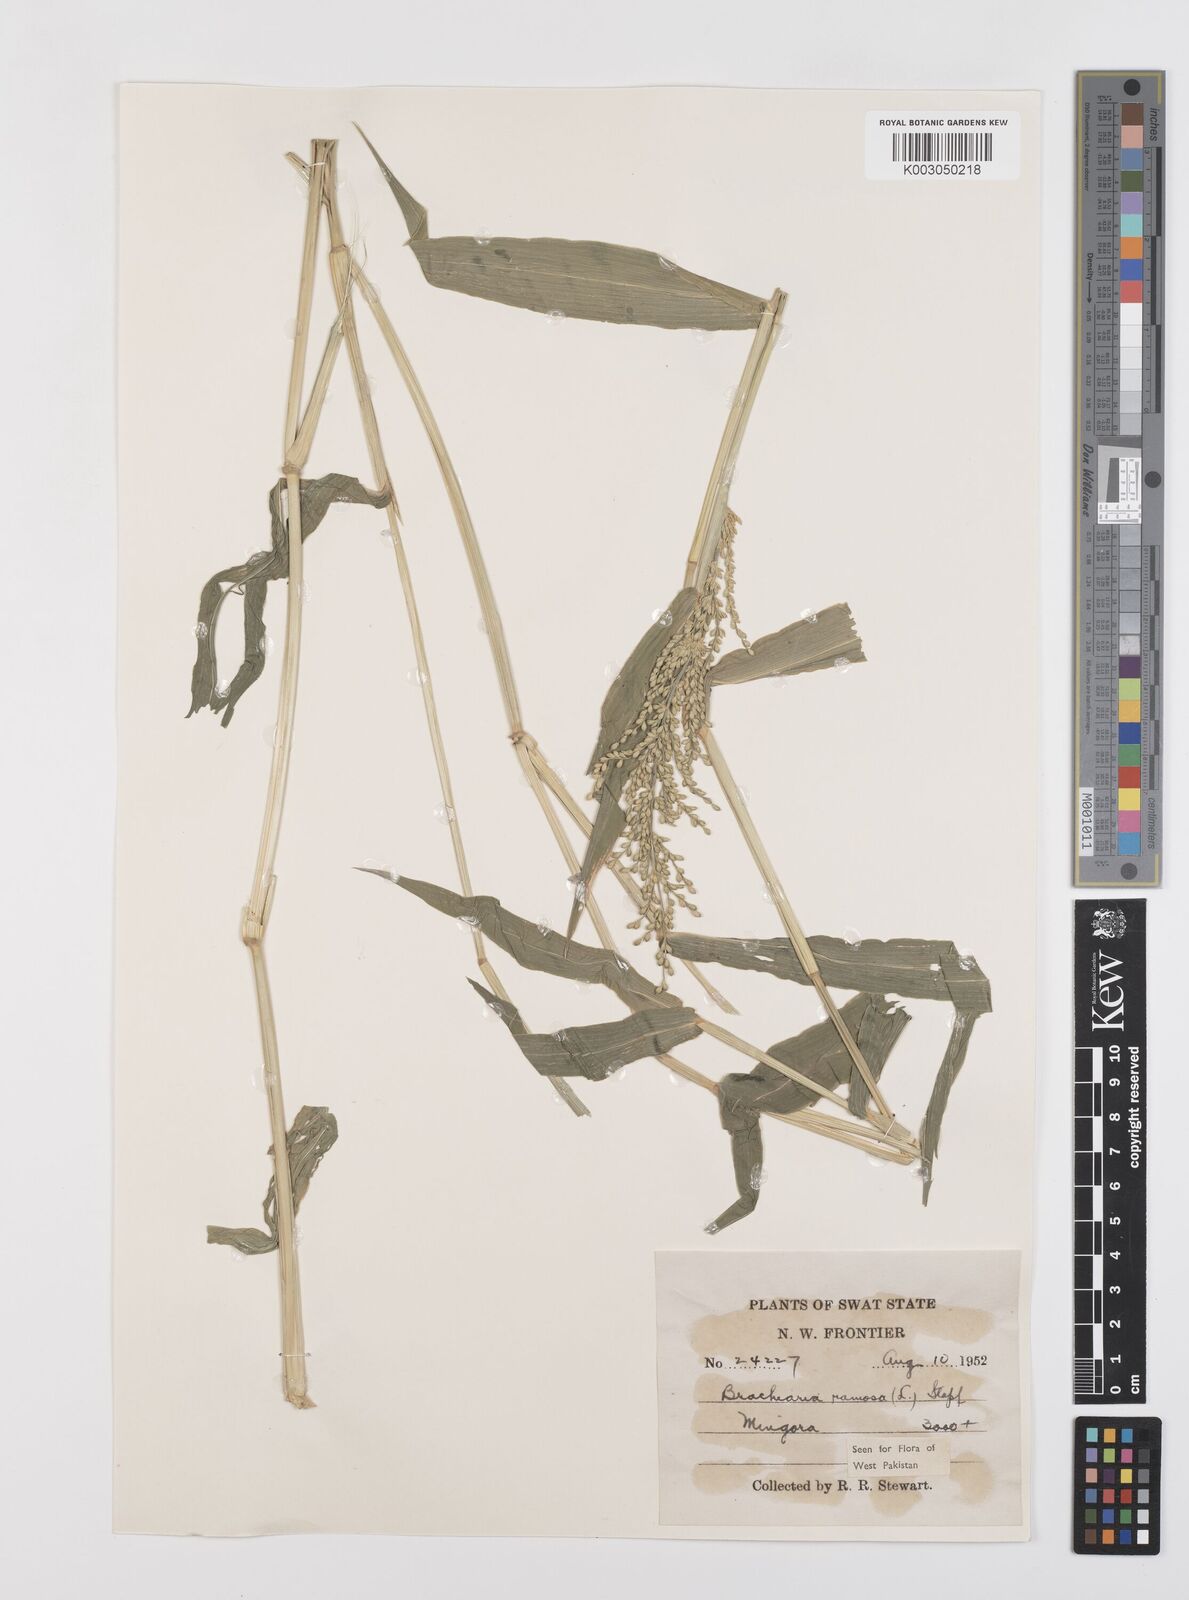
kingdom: Plantae
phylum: Tracheophyta
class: Liliopsida
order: Poales
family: Poaceae
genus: Urochloa
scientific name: Urochloa ramosa
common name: Browntop millet
